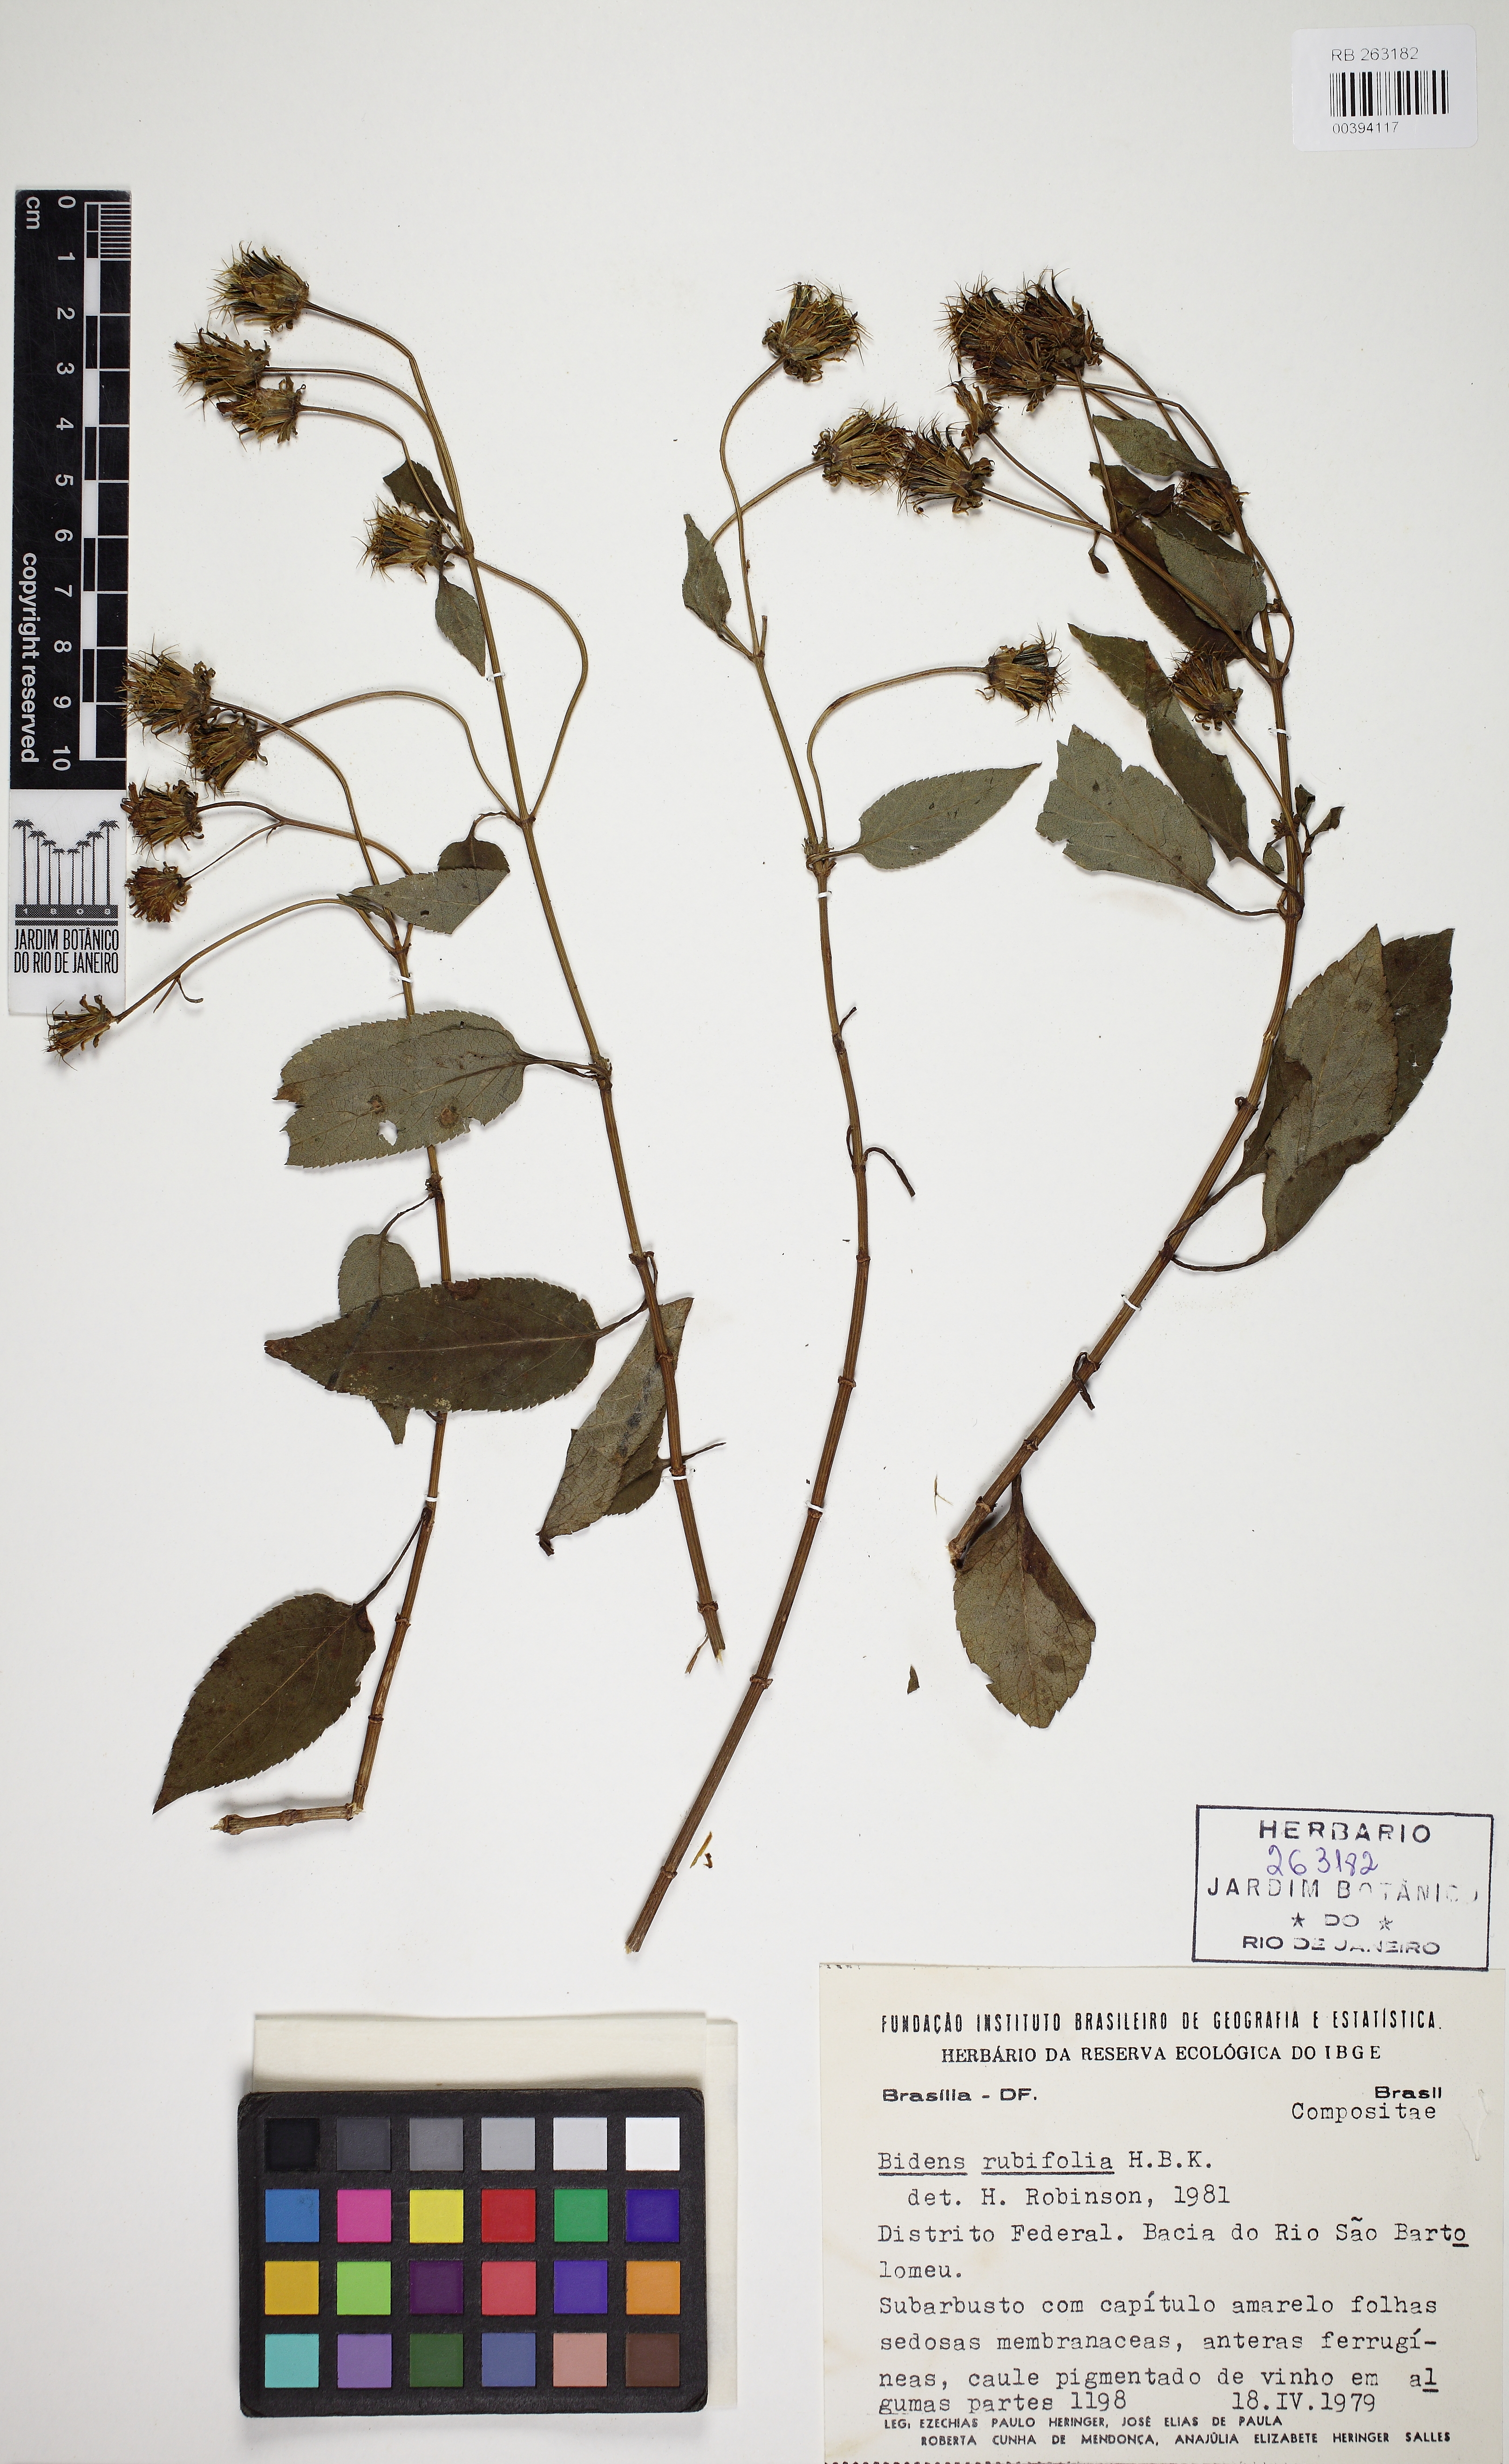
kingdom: Plantae
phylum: Tracheophyta
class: Magnoliopsida
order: Asterales
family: Asteraceae
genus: Bidens
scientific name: Bidens rubifolia
